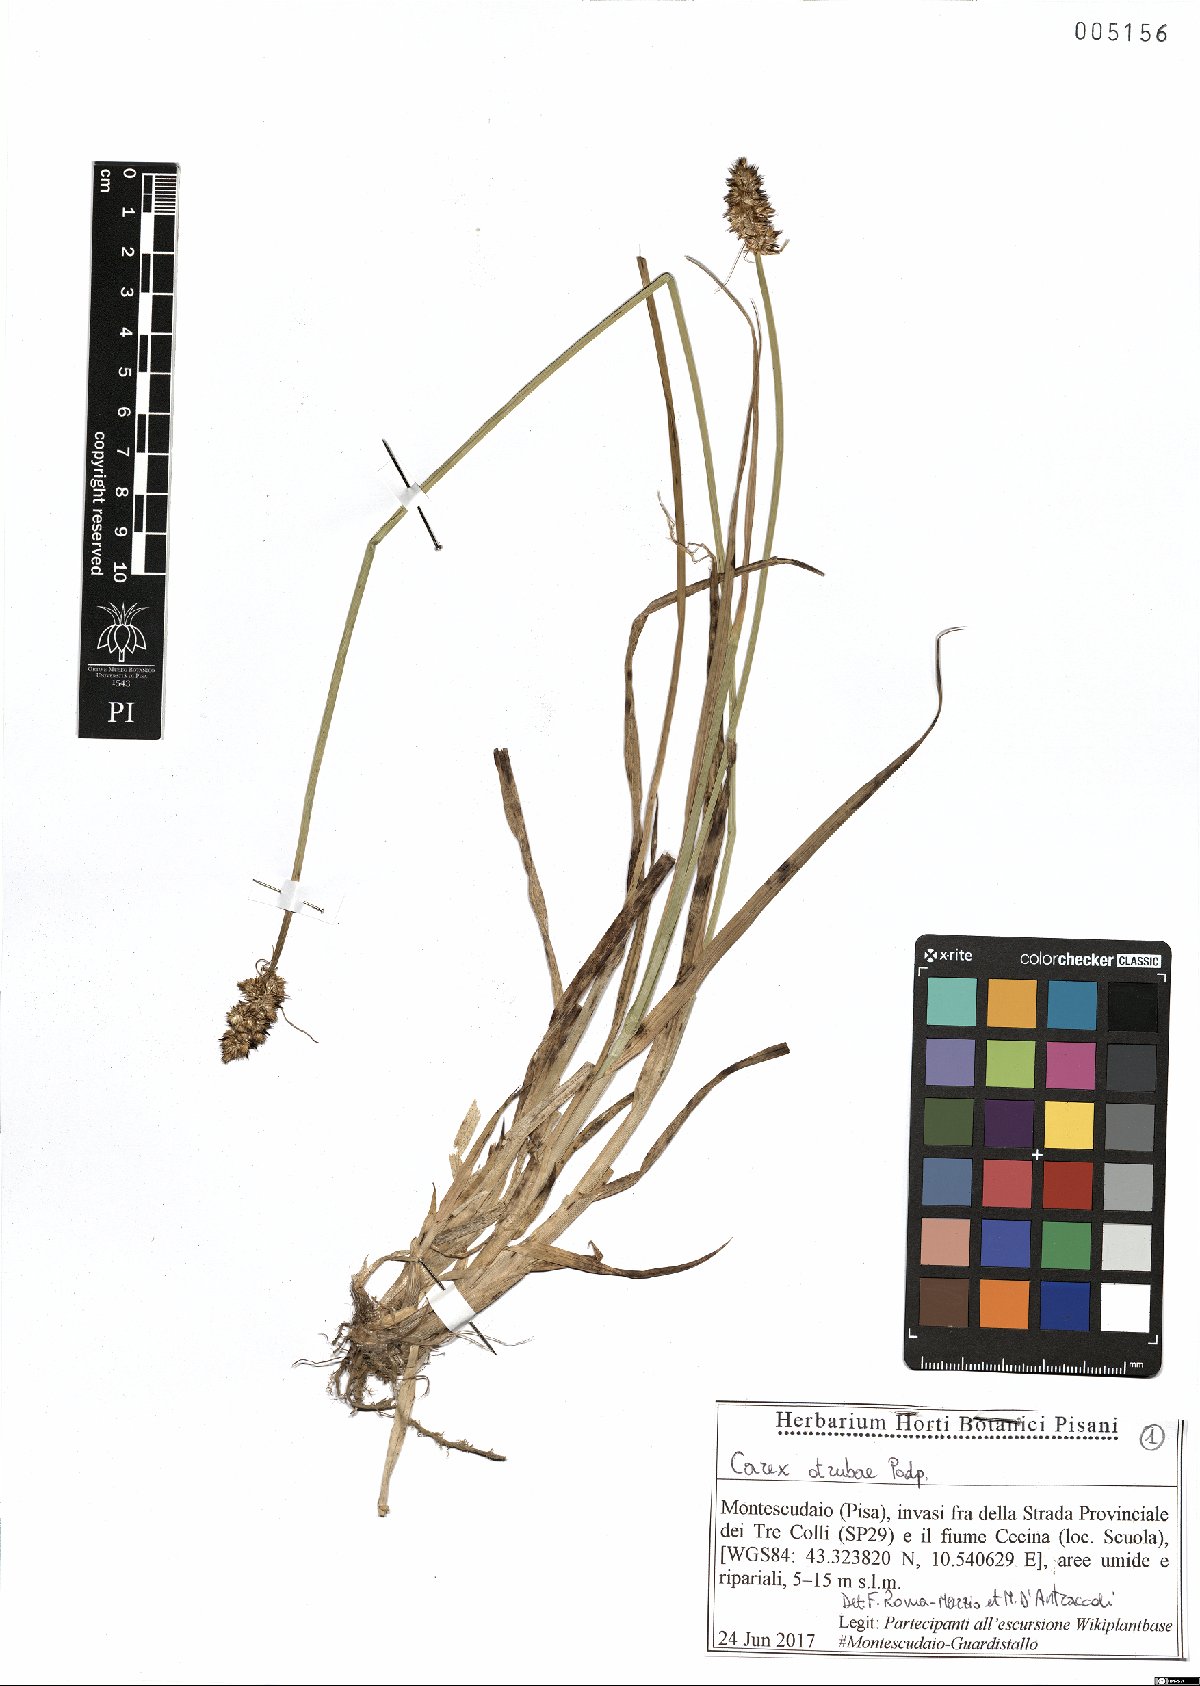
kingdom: Plantae
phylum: Tracheophyta
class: Liliopsida
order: Poales
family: Cyperaceae
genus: Carex
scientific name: Carex otrubae
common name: False fox-sedge
